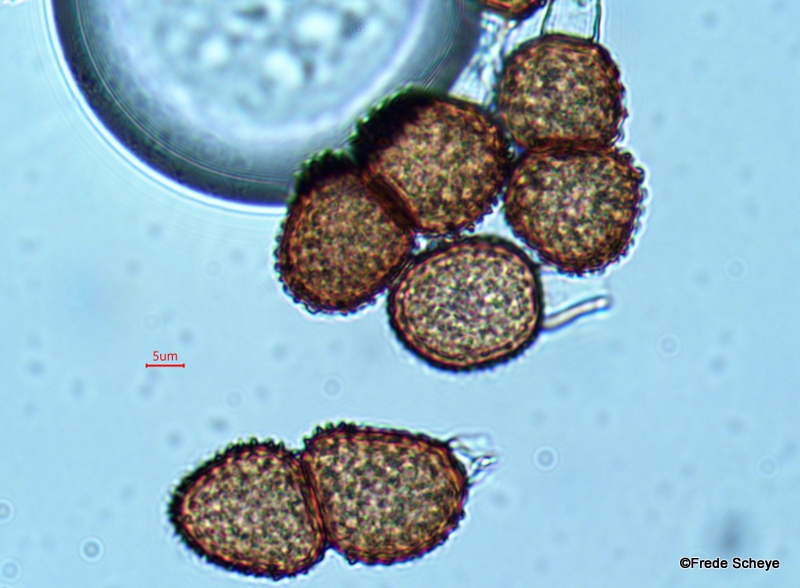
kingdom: Fungi
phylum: Basidiomycota
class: Pucciniomycetes
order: Pucciniales
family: Tranzscheliaceae
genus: Tranzschelia
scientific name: Tranzschelia anemones
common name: anemone-knæksporerust
